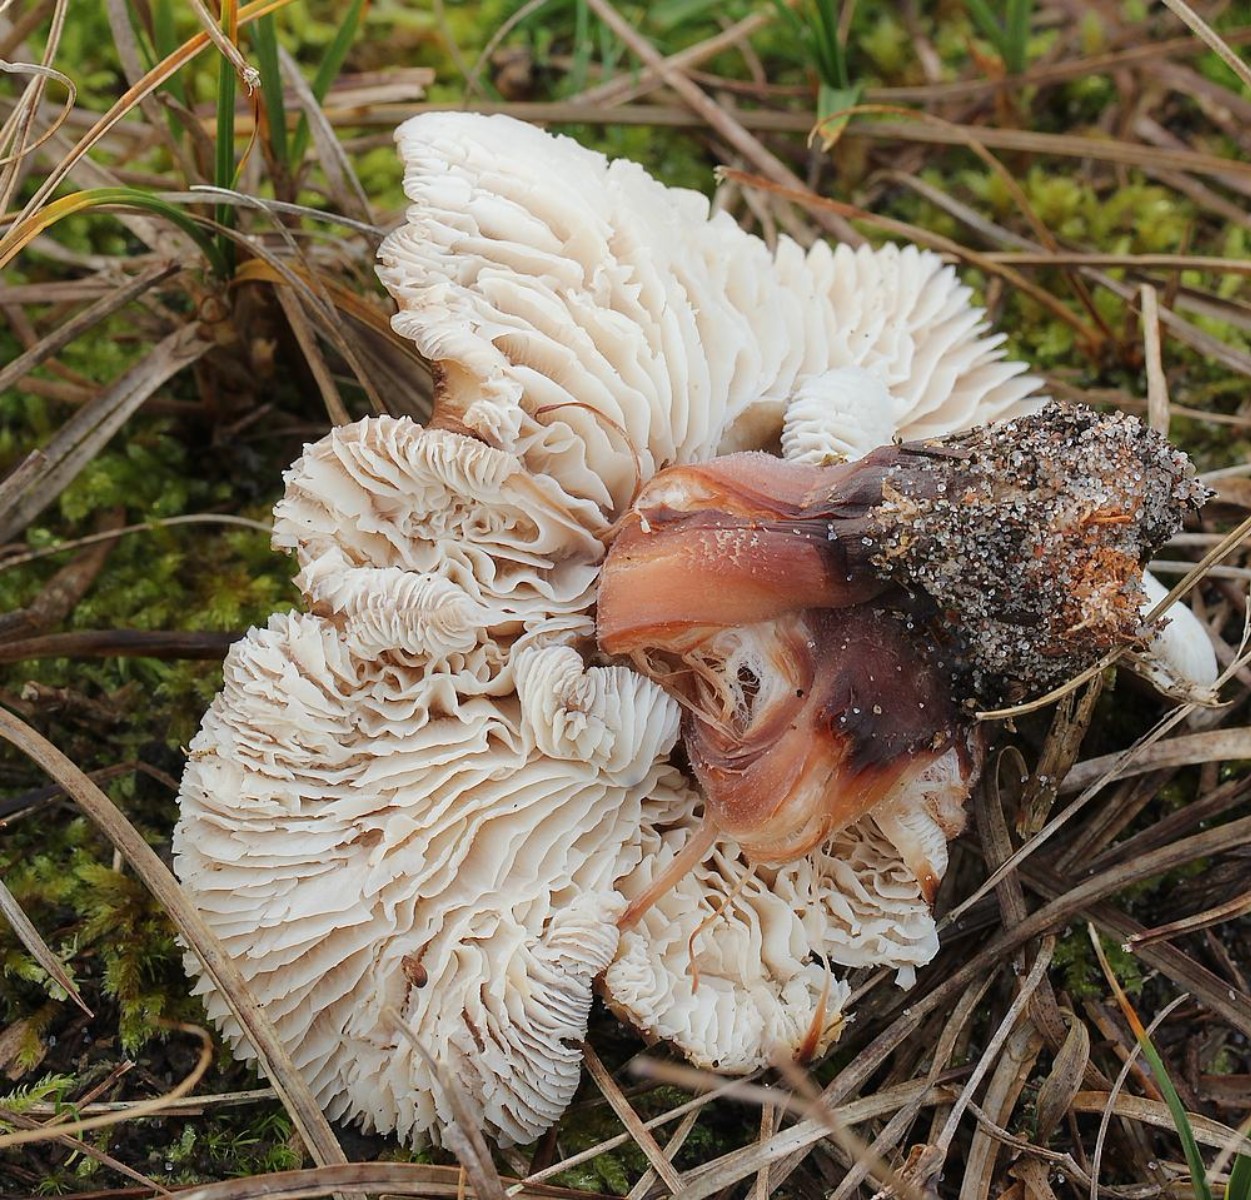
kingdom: Fungi
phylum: Basidiomycota
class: Agaricomycetes
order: Agaricales
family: Omphalotaceae
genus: Rhodocollybia
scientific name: Rhodocollybia asema
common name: horngrå fladhat
